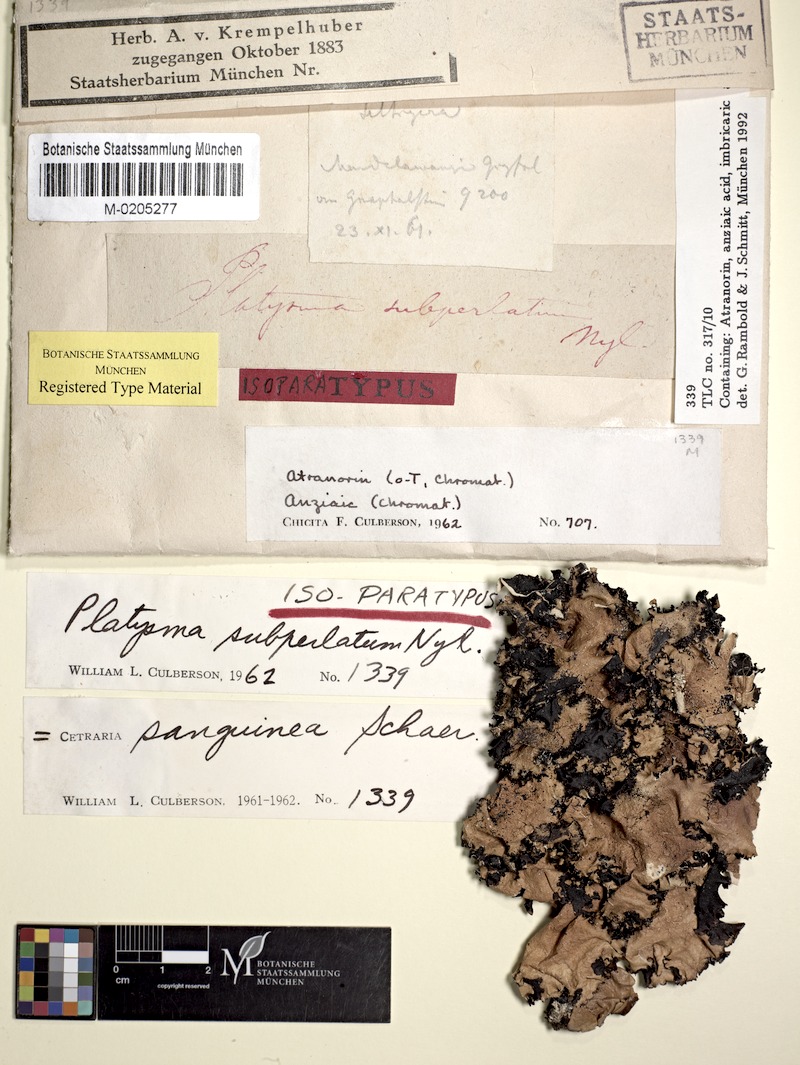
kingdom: Fungi
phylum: Ascomycota
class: Lecanoromycetes
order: Lecanorales
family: Parmeliaceae
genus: Cetrelia
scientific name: Cetrelia sanguinea
